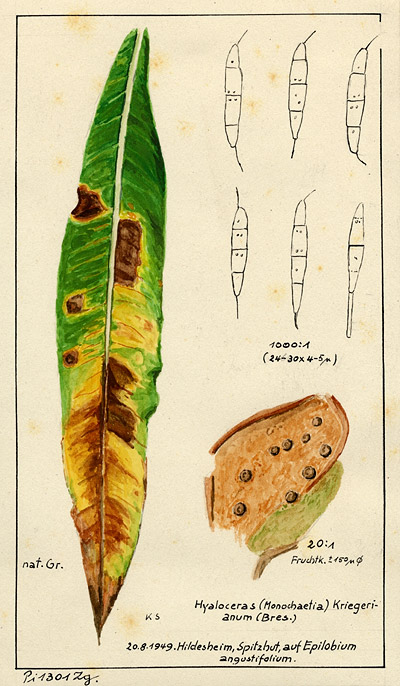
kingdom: Fungi
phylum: Ascomycota
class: Sordariomycetes
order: Amphisphaeriales
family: Sporocadaceae
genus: Allelochaeta
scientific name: Allelochaeta kriegeriana
